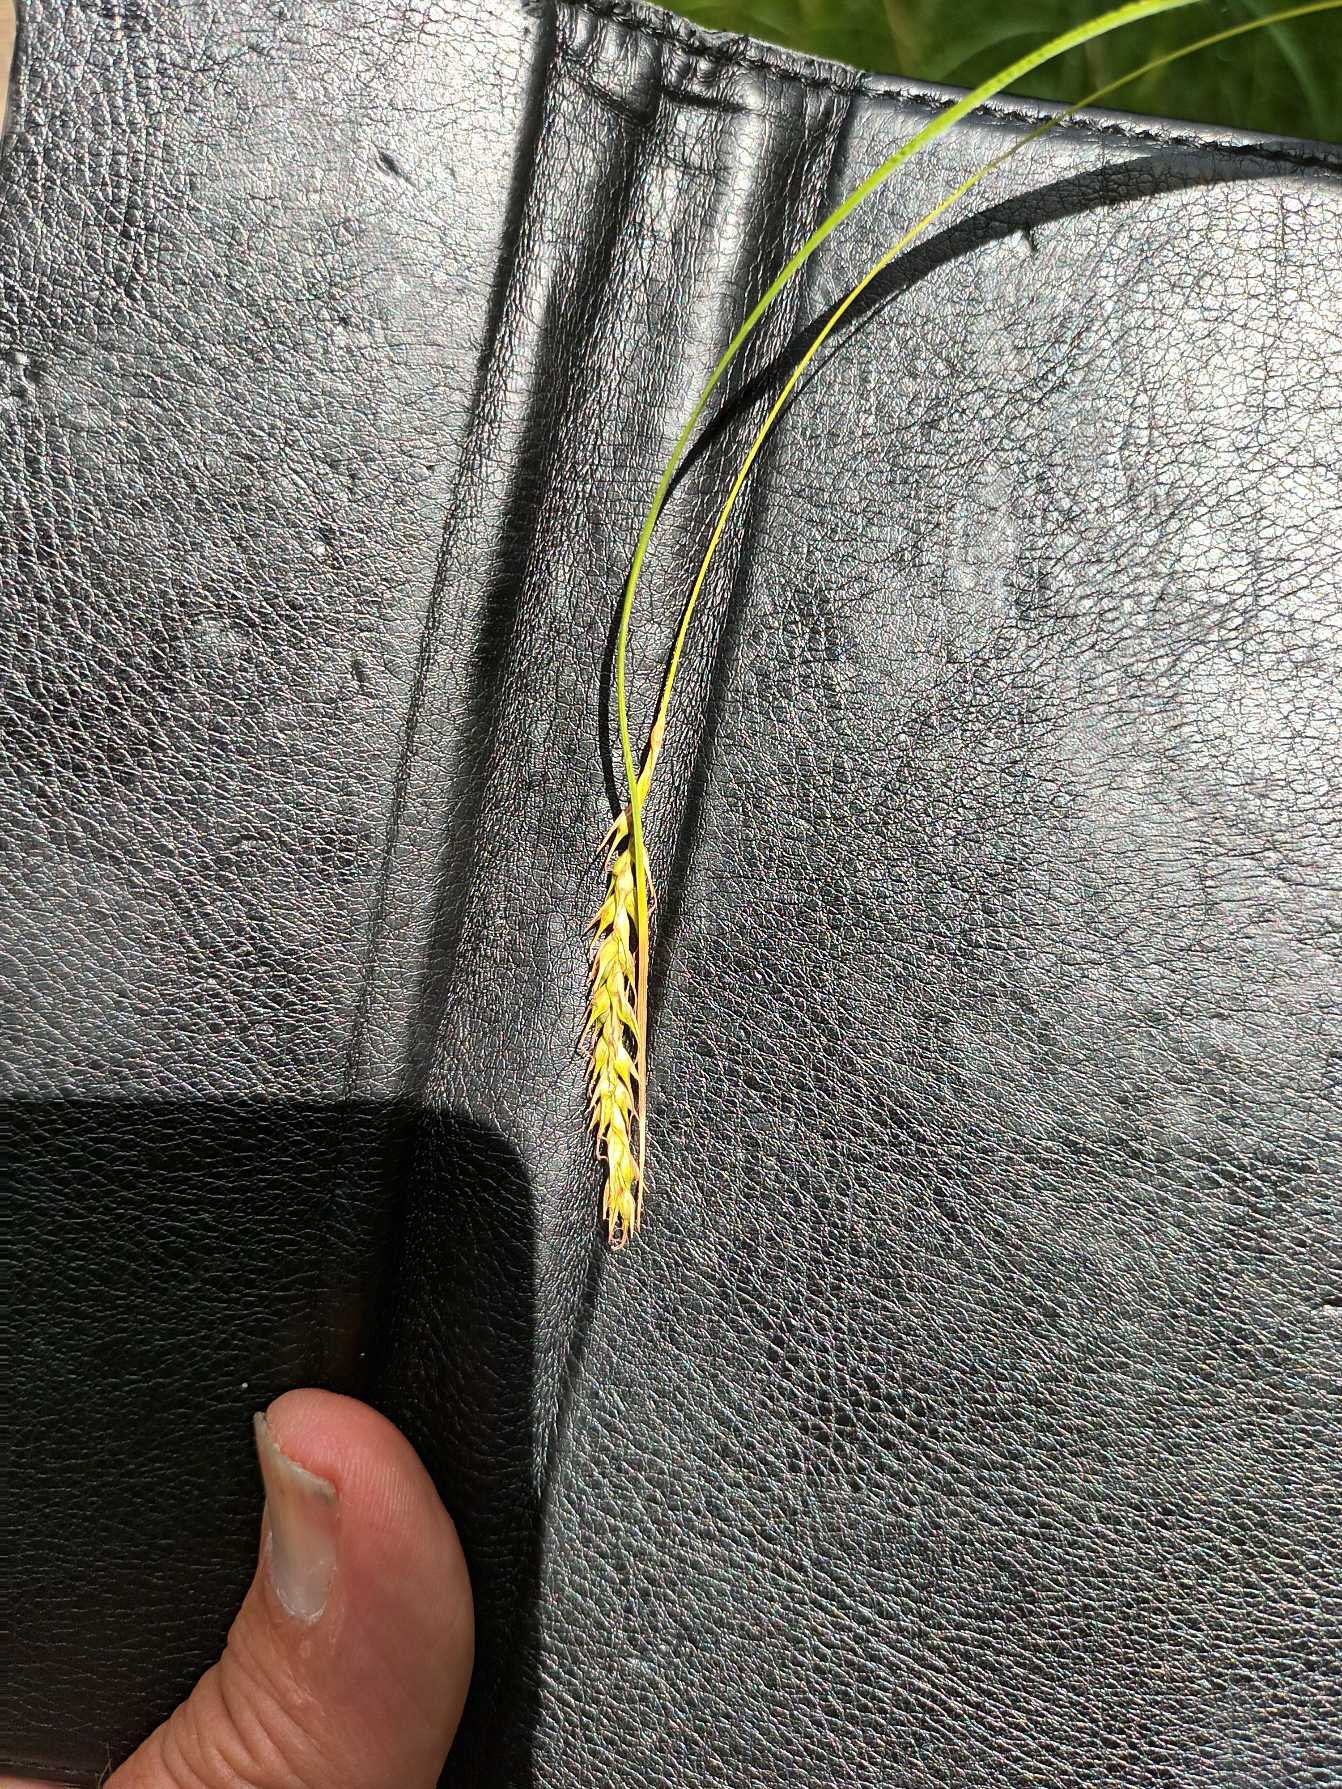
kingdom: Plantae
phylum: Tracheophyta
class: Liliopsida
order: Poales
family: Cyperaceae
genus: Carex
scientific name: Carex sylvatica
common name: Skov-star
